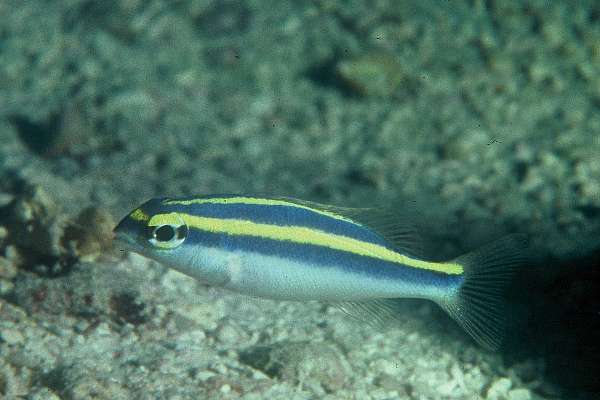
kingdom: Animalia
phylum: Chordata
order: Perciformes
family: Nemipteridae
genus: Scolopsis
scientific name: Scolopsis frenata
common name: Bridled monocle bream
